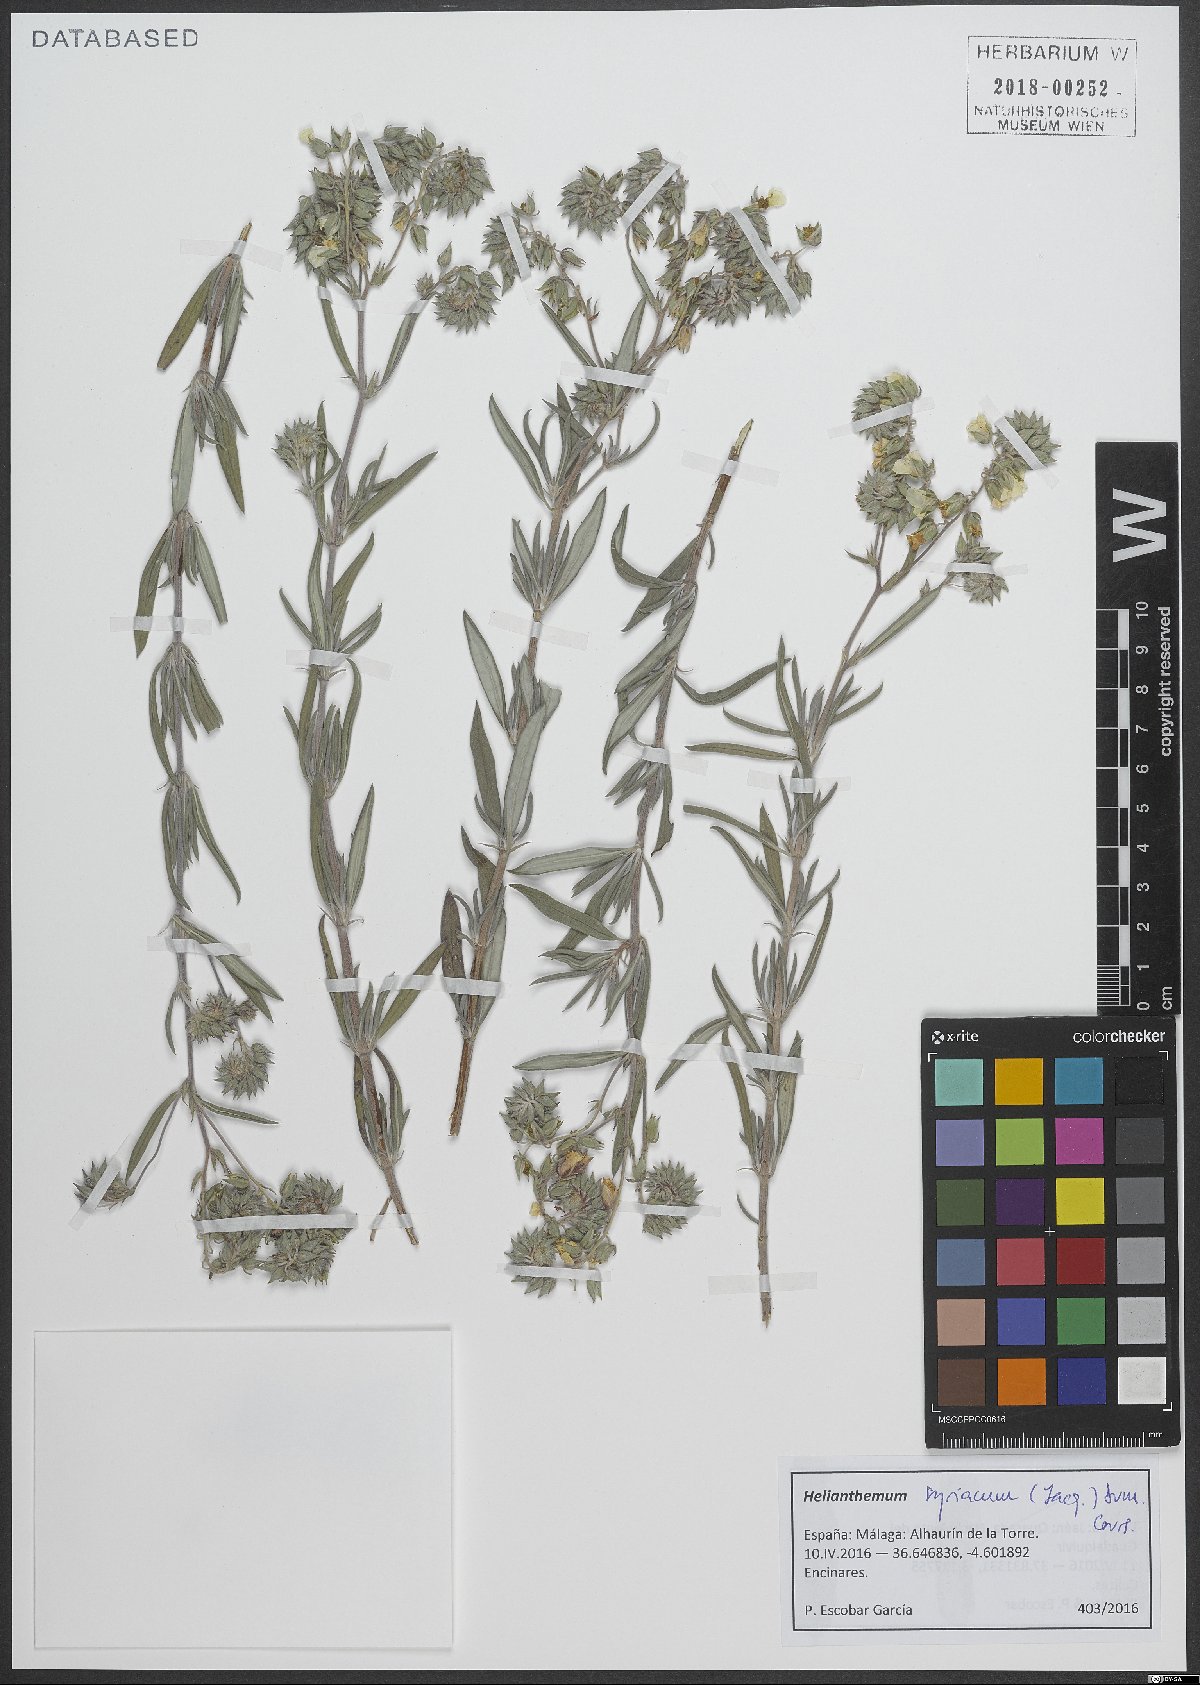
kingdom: Plantae
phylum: Tracheophyta
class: Magnoliopsida
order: Malvales
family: Cistaceae
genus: Helianthemum
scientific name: Helianthemum syriacum
